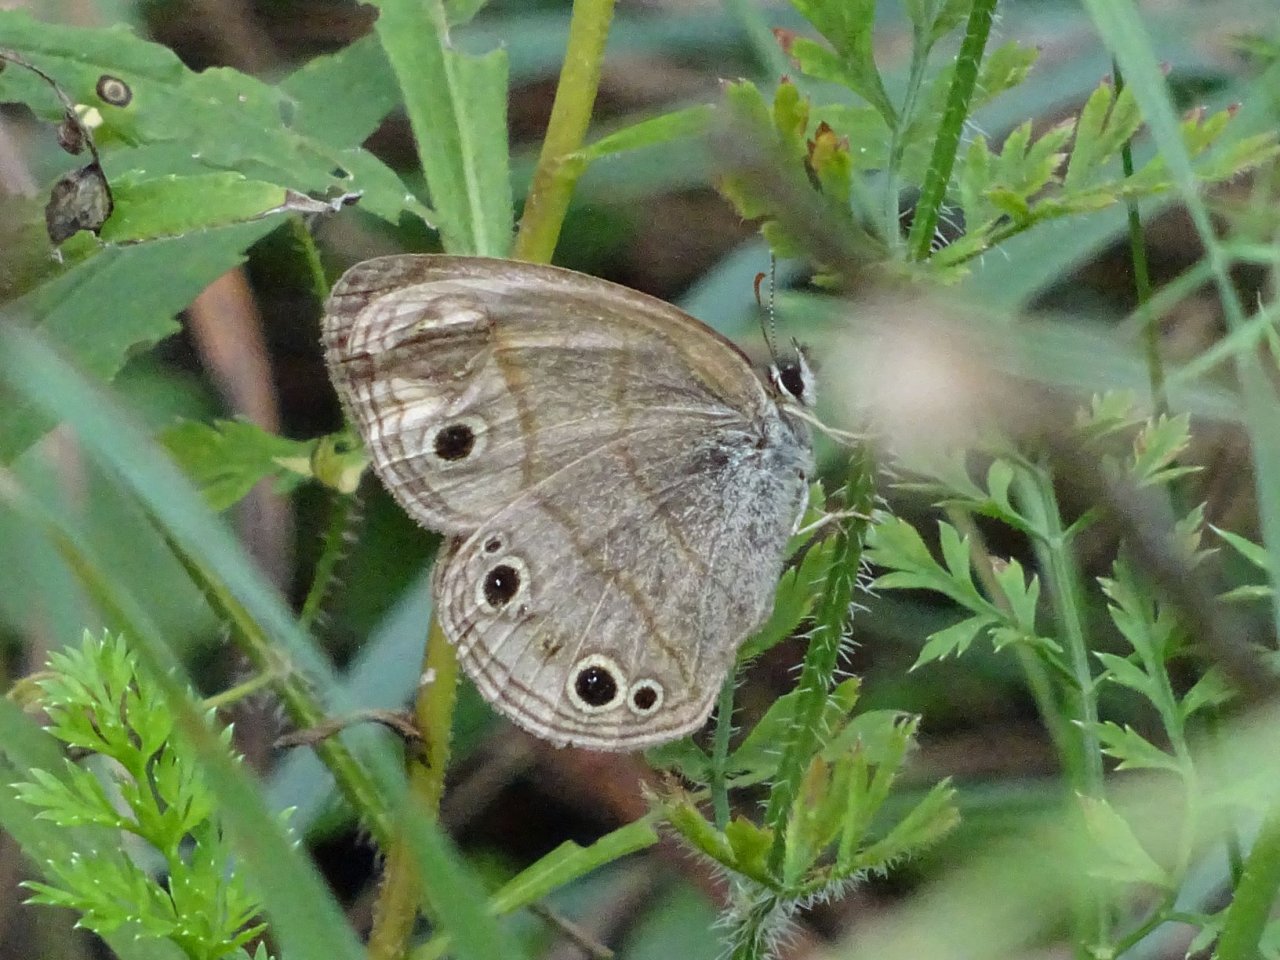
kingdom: Animalia
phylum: Arthropoda
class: Insecta
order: Lepidoptera
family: Nymphalidae
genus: Euptychia
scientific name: Euptychia cymela
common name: Little Wood Satyr
